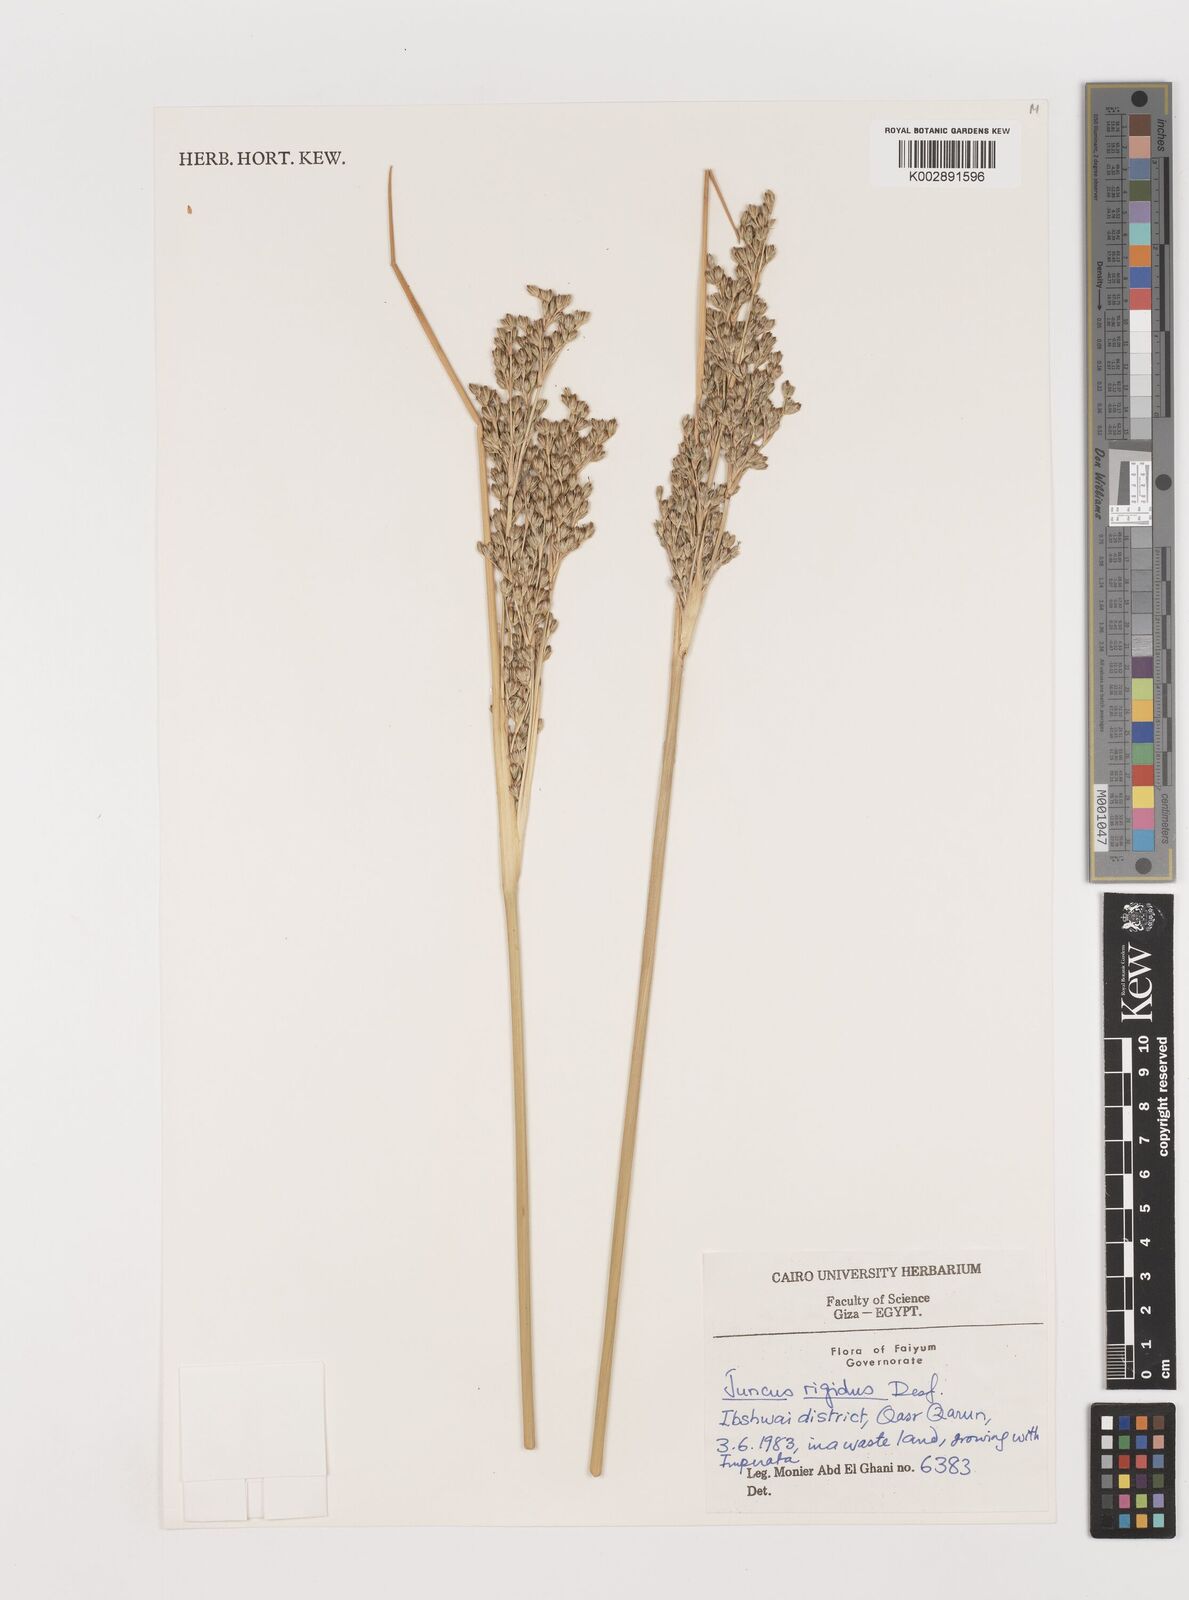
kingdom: Plantae
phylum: Tracheophyta
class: Liliopsida
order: Poales
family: Juncaceae
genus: Juncus
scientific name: Juncus rigidus
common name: Hard sea rush
